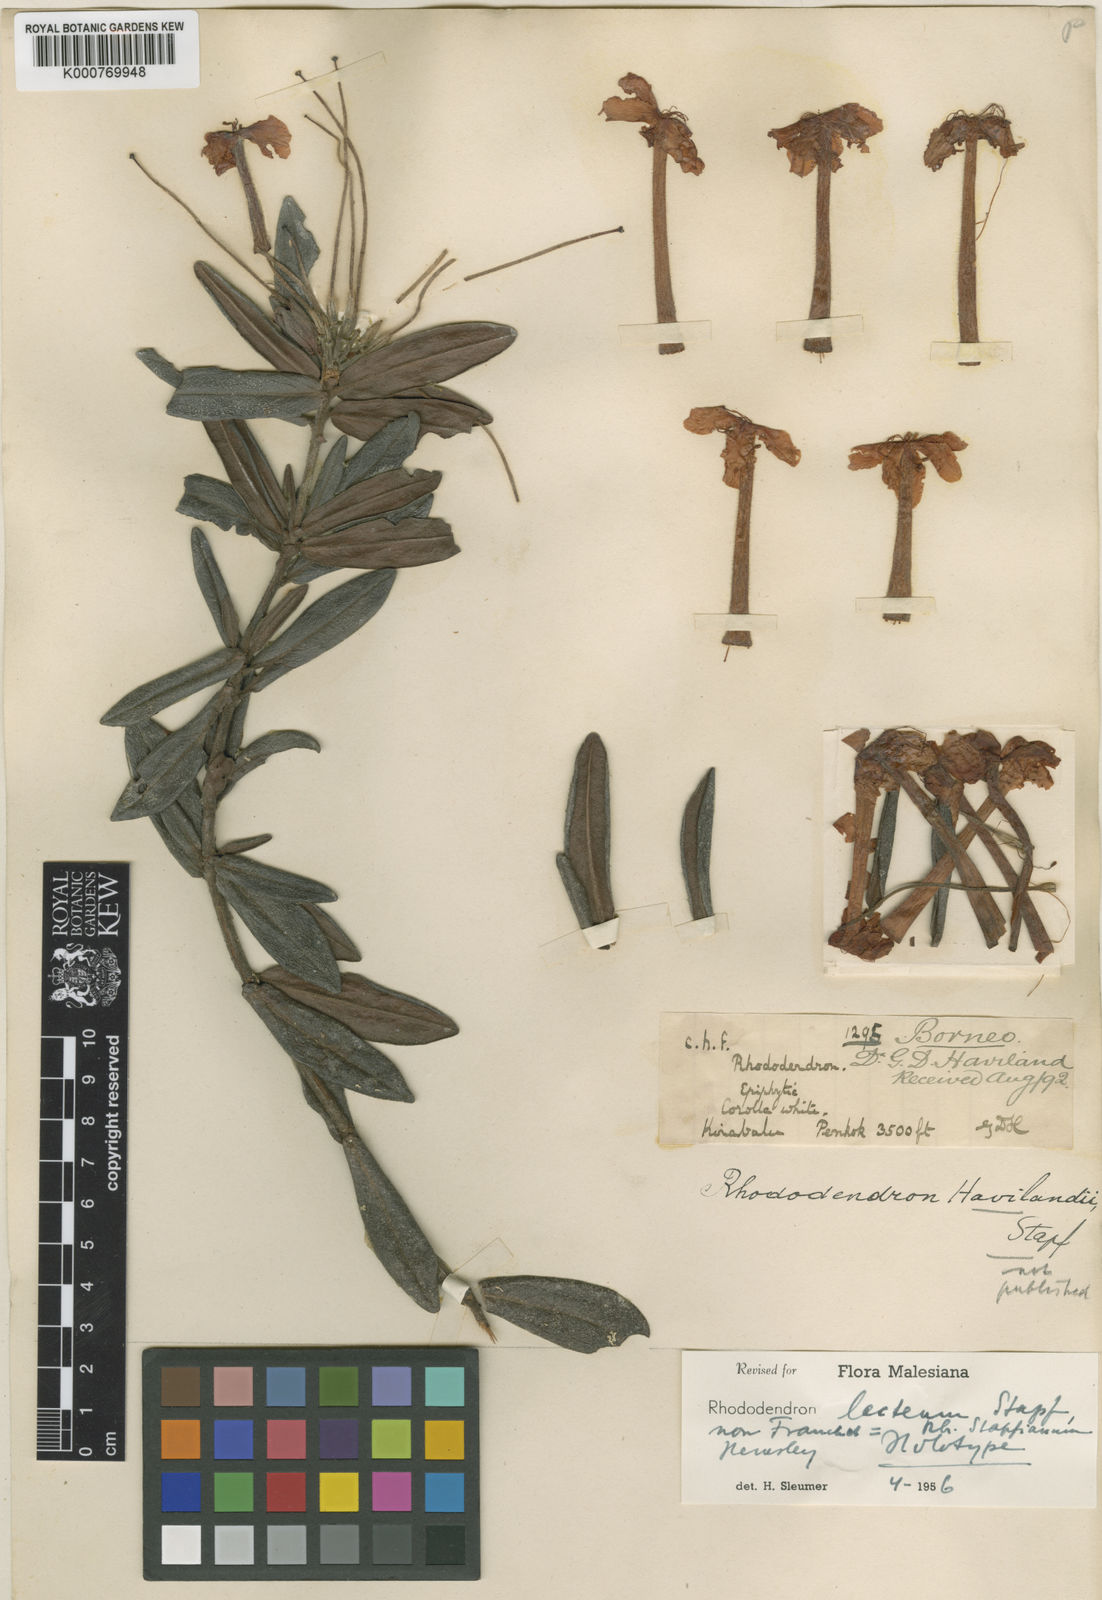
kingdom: Plantae
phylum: Tracheophyta
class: Magnoliopsida
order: Ericales
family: Ericaceae
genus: Rhododendron
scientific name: Rhododendron stapfianum
